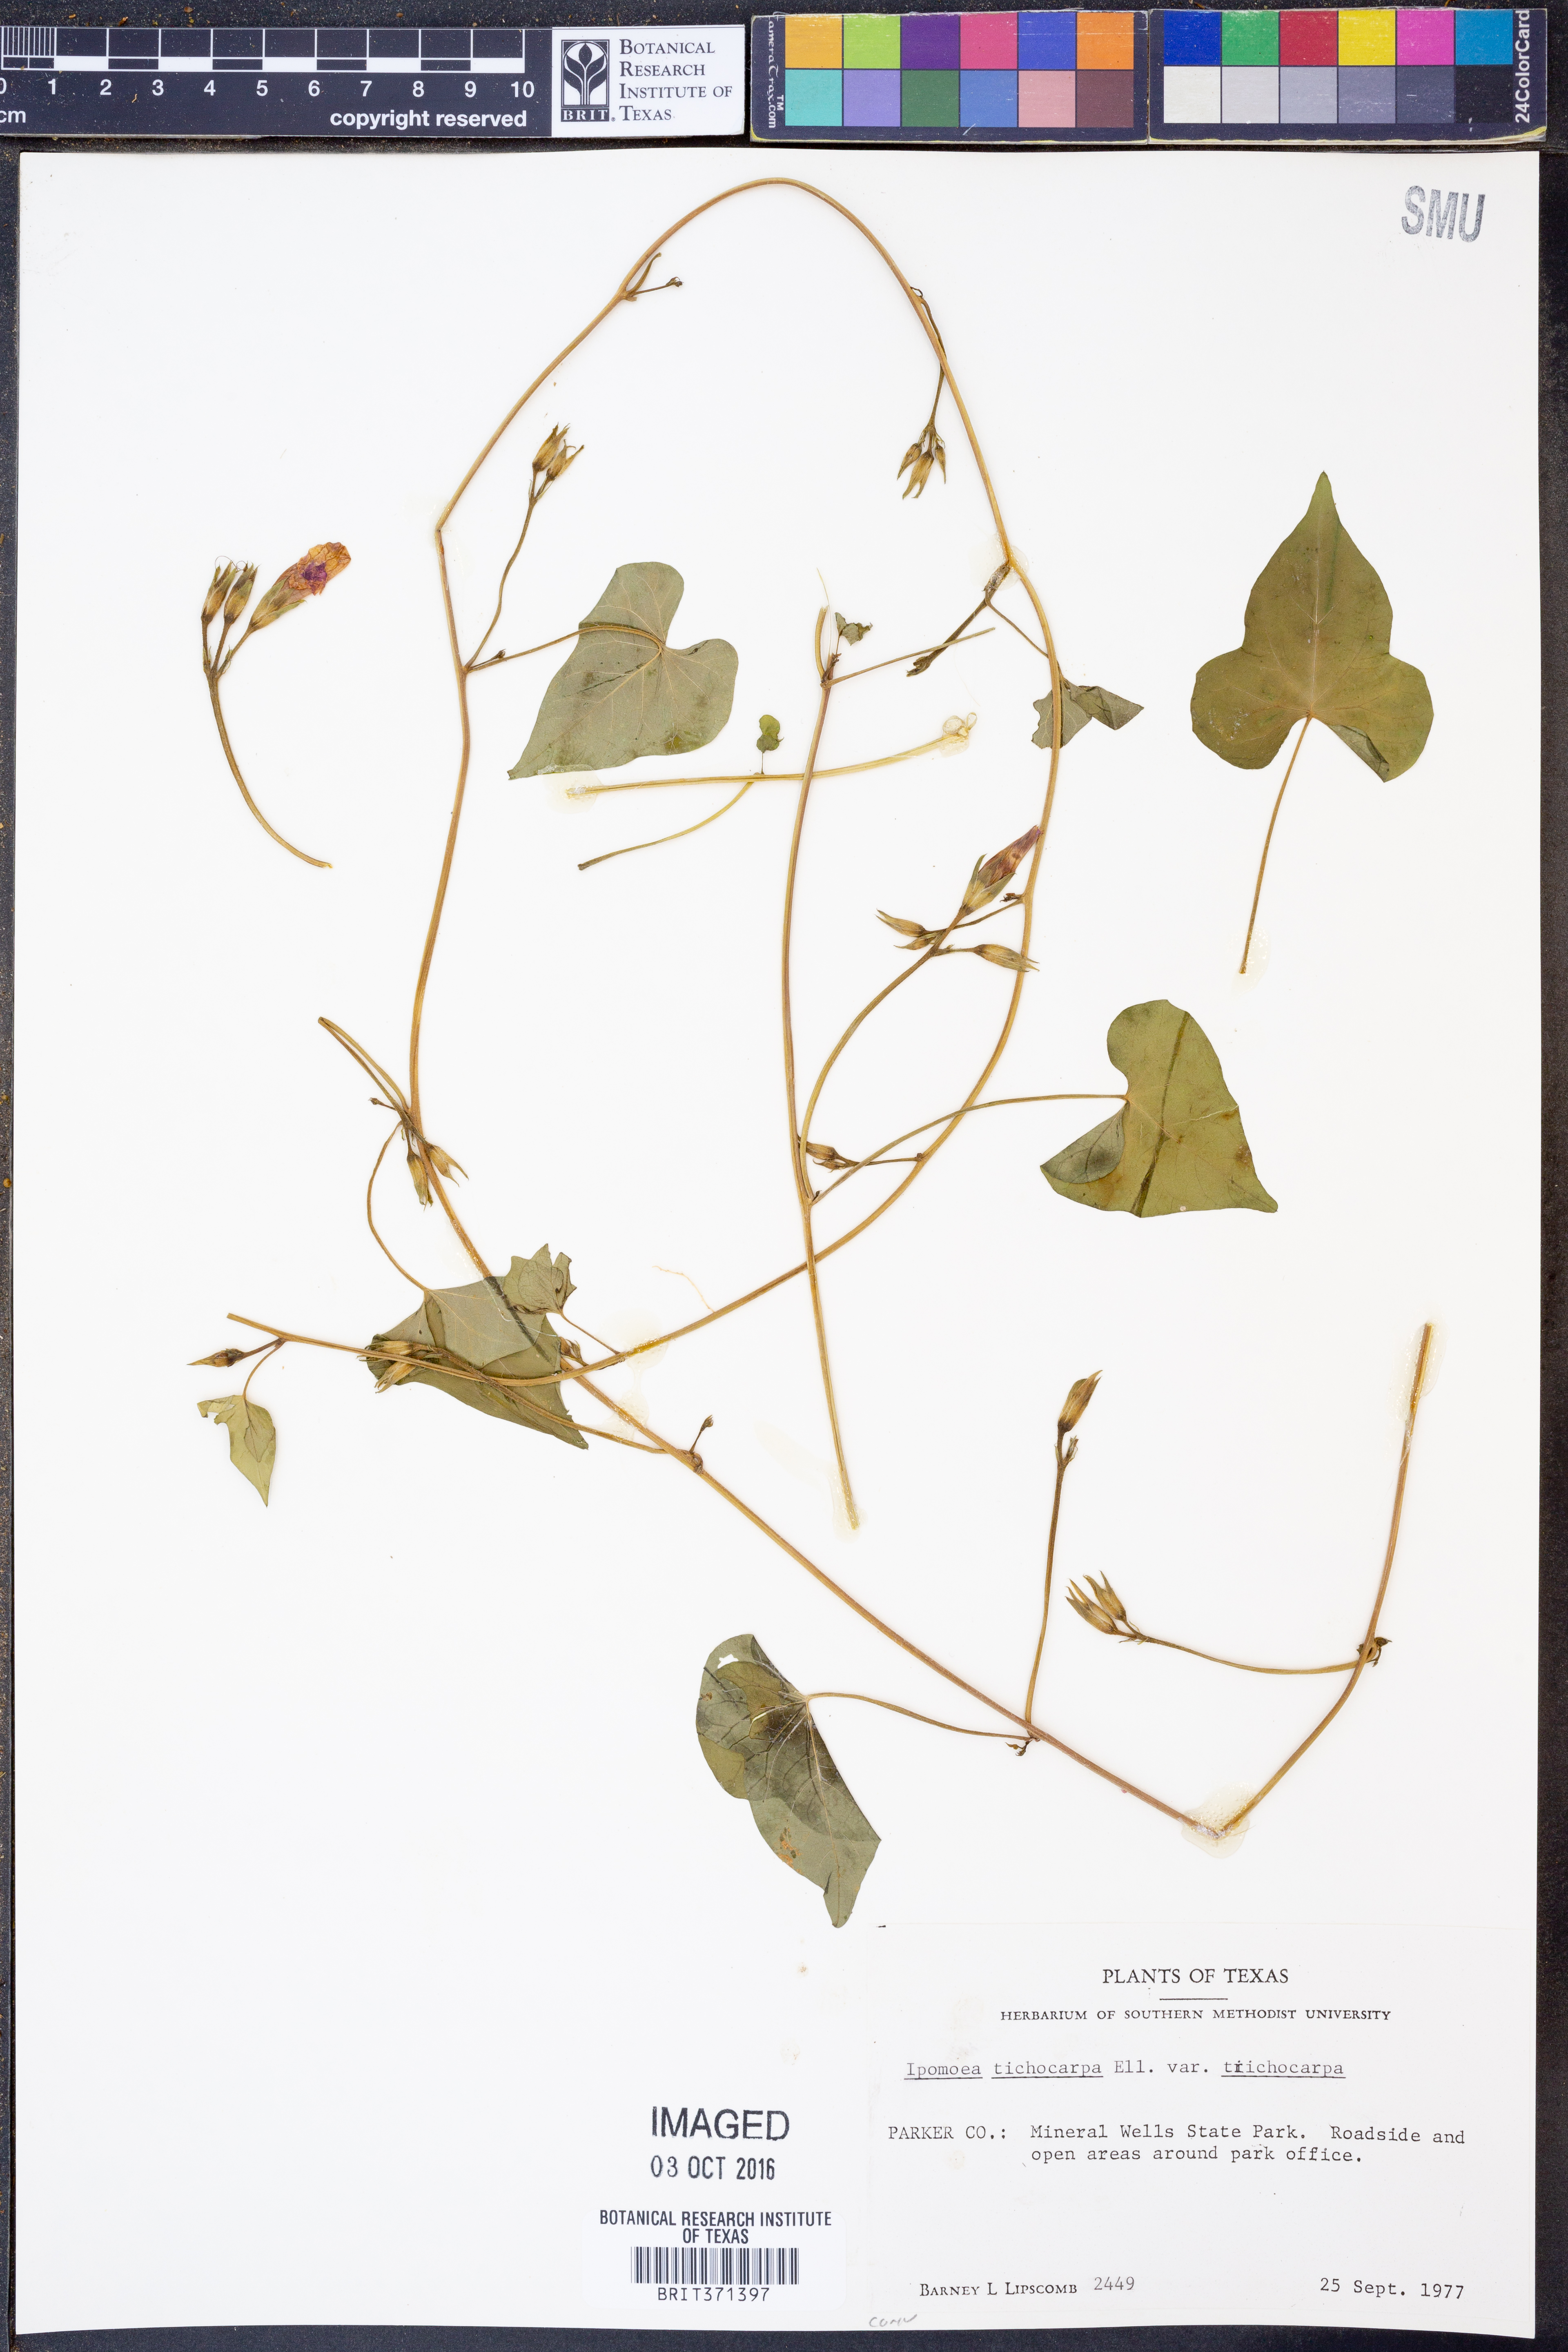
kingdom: Plantae
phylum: Tracheophyta
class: Magnoliopsida
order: Solanales
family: Convolvulaceae
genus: Ipomoea
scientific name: Ipomoea cordatotriloba
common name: Cotton morning glory
